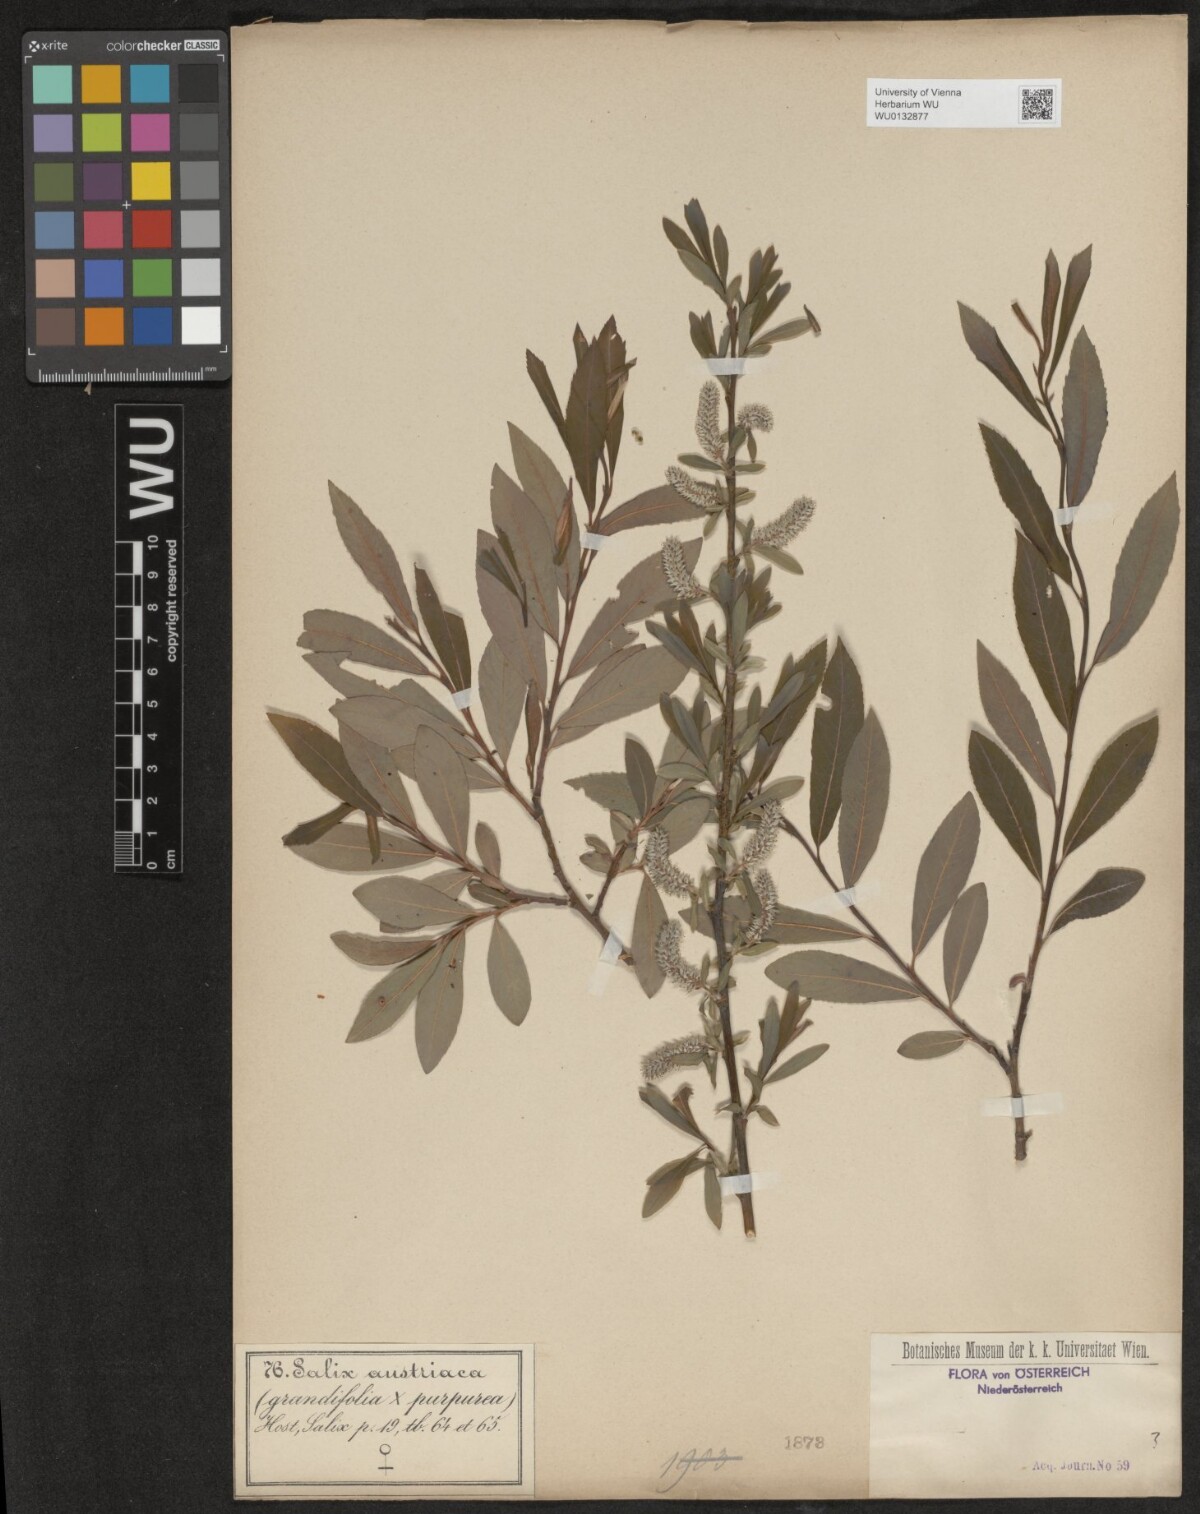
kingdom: Plantae
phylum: Tracheophyta
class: Magnoliopsida
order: Malpighiales
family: Salicaceae
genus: Salix
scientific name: Salix austriaca
